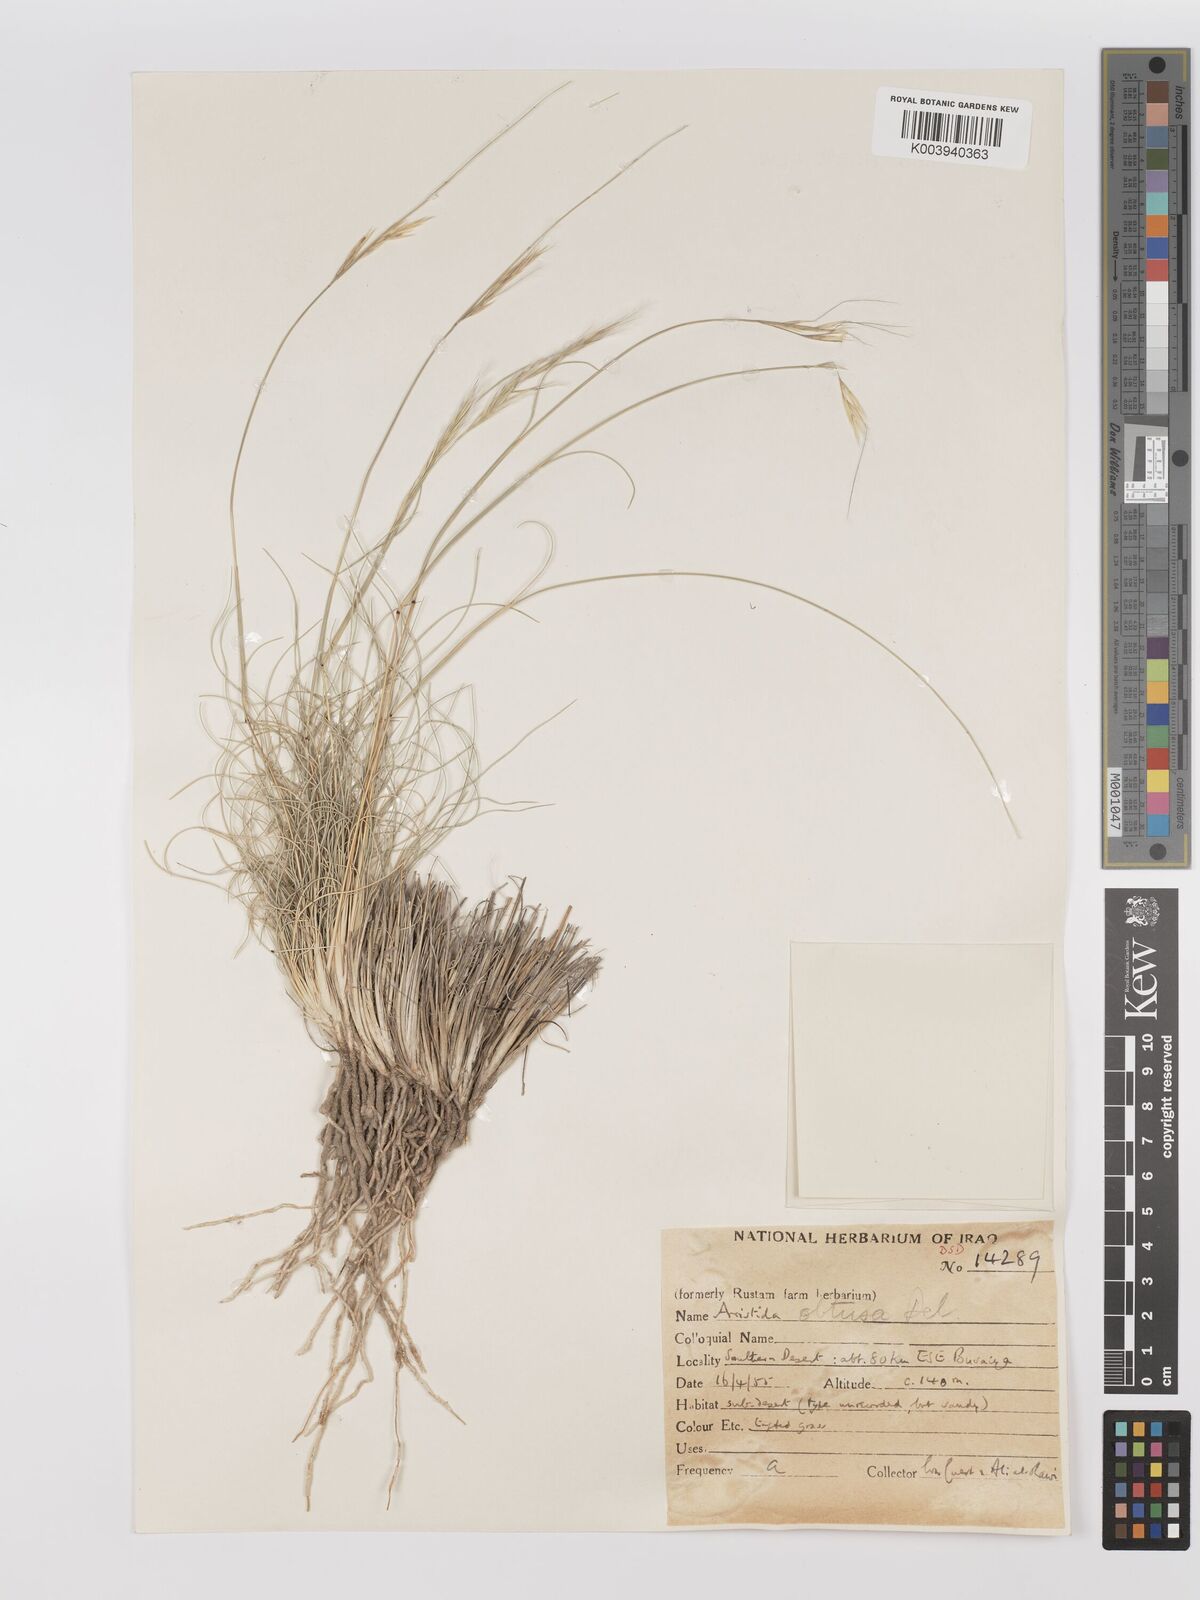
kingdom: Plantae
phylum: Tracheophyta
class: Liliopsida
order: Poales
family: Poaceae
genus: Stipagrostis
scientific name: Stipagrostis obtusa
